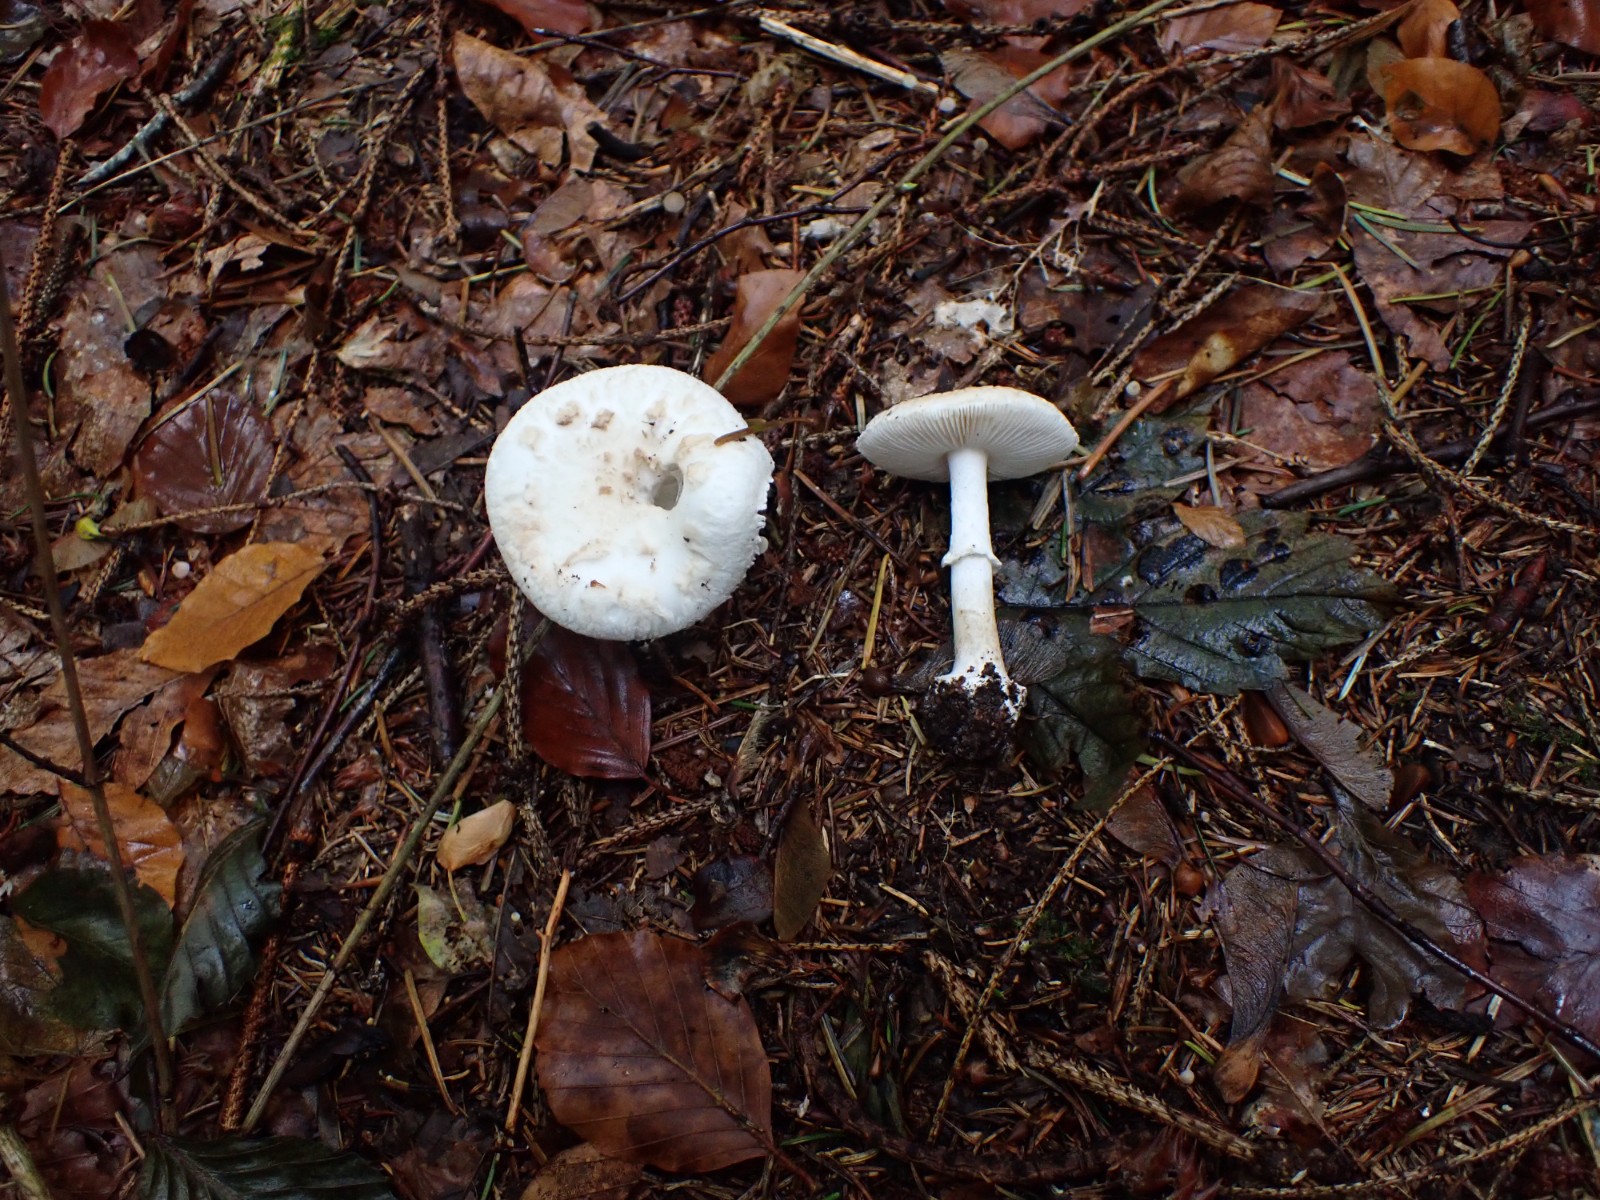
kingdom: Fungi
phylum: Basidiomycota
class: Agaricomycetes
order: Agaricales
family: Amanitaceae
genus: Amanita
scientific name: Amanita citrina
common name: kugleknoldet fluesvamp
